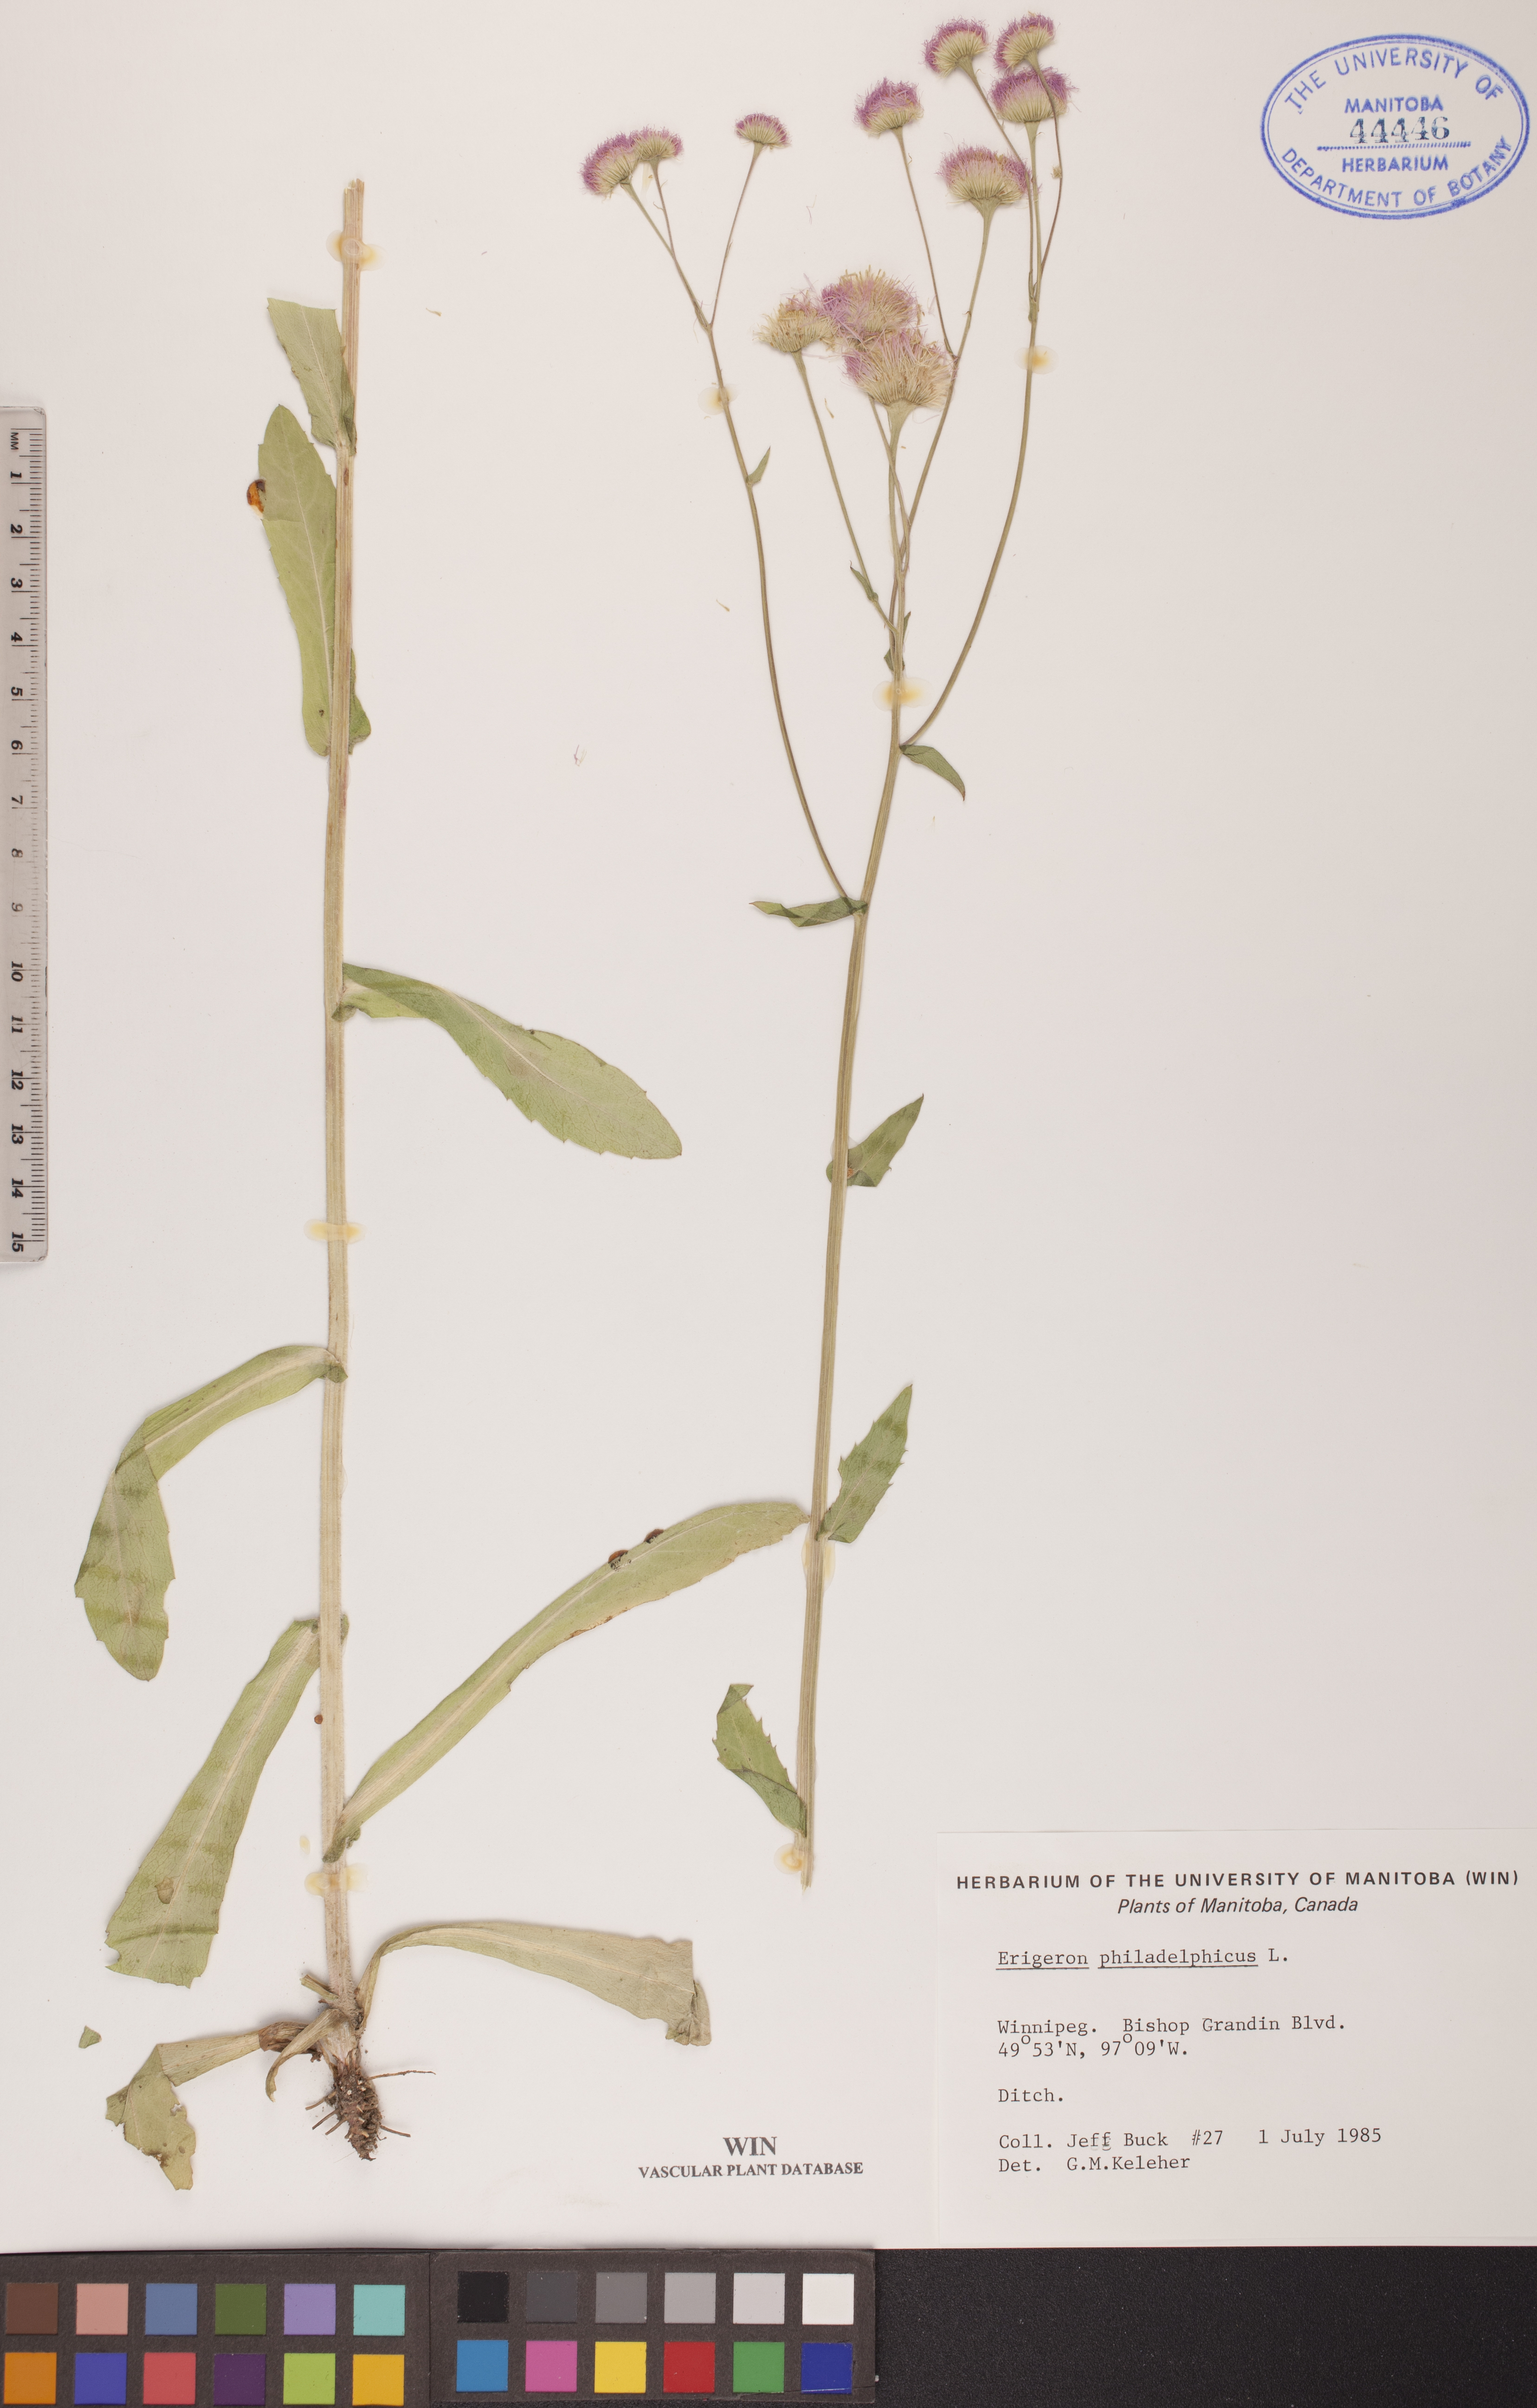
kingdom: Plantae
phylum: Tracheophyta
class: Magnoliopsida
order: Asterales
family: Asteraceae
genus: Erigeron
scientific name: Erigeron philadelphicus
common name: Robin's-plantain
